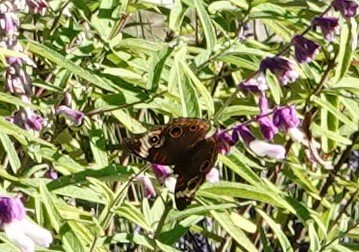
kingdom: Animalia
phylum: Arthropoda
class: Insecta
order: Lepidoptera
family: Nymphalidae
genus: Junonia
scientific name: Junonia coenia
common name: Common Buckeye
